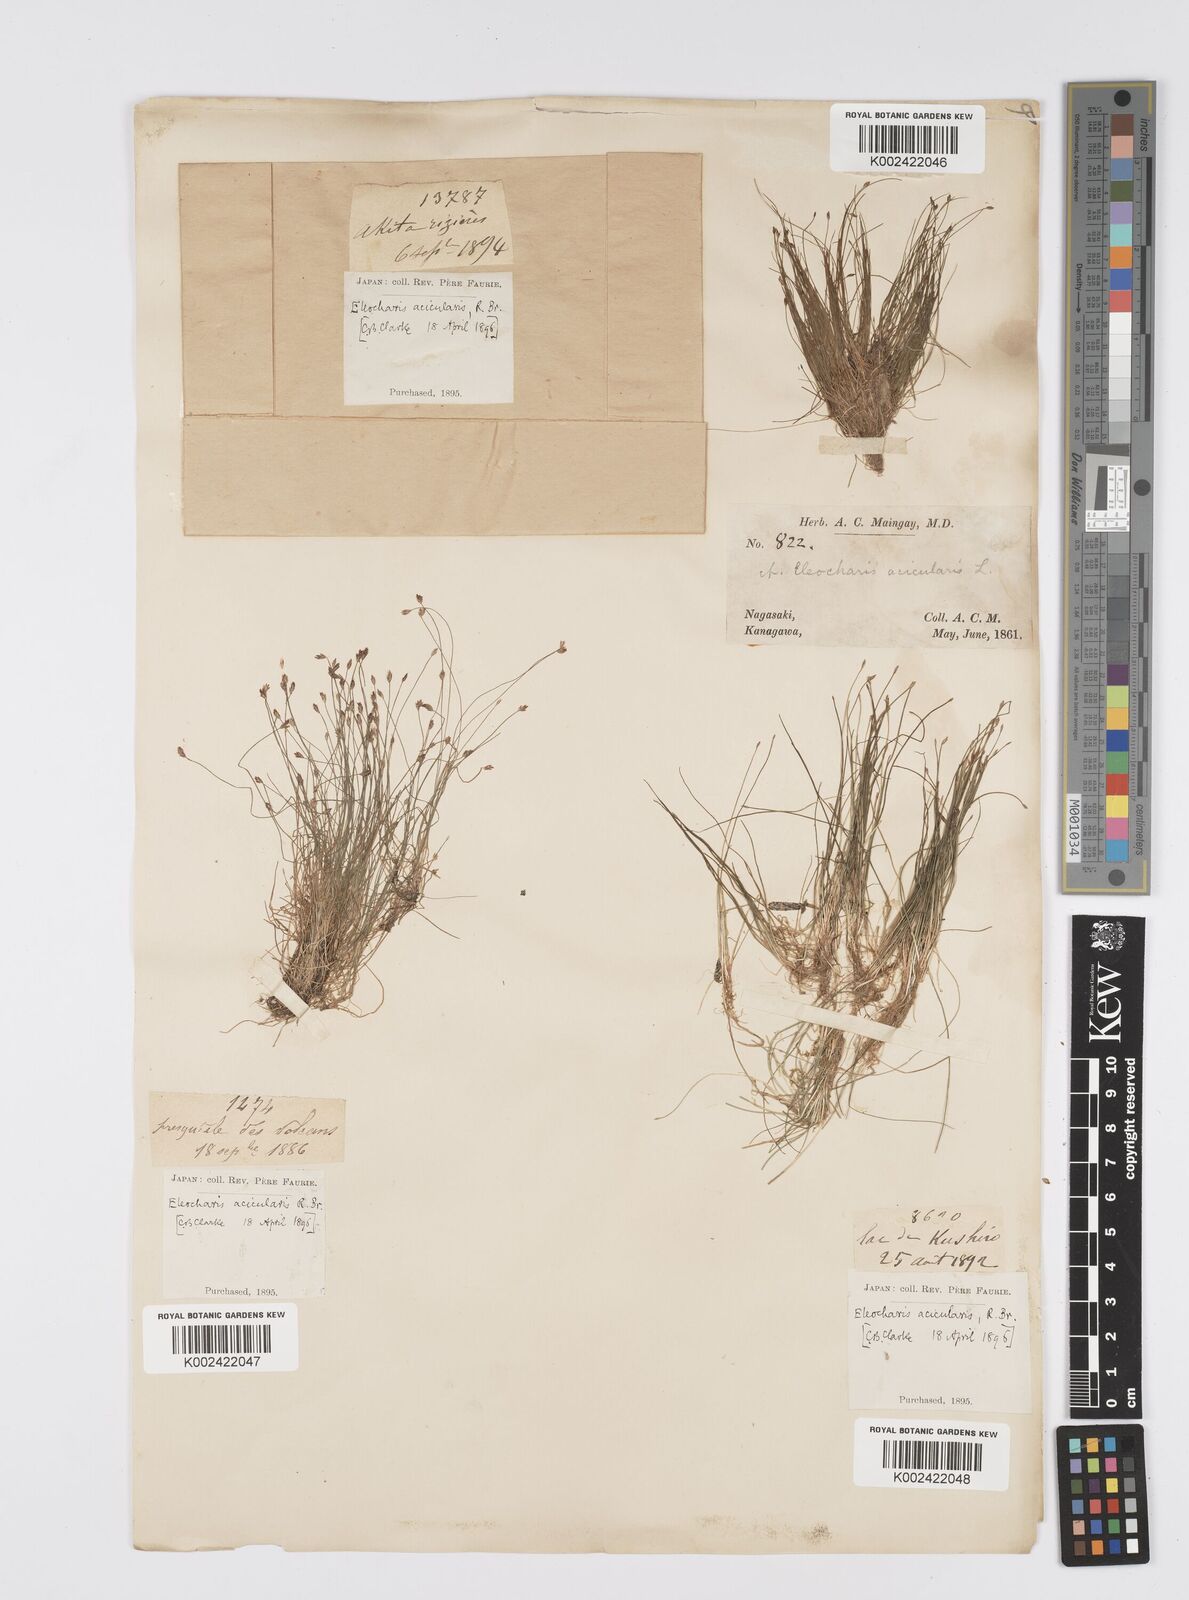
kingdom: Plantae
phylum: Tracheophyta
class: Liliopsida
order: Poales
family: Cyperaceae
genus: Eleocharis
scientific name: Eleocharis acicularis
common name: Needle spike-rush
